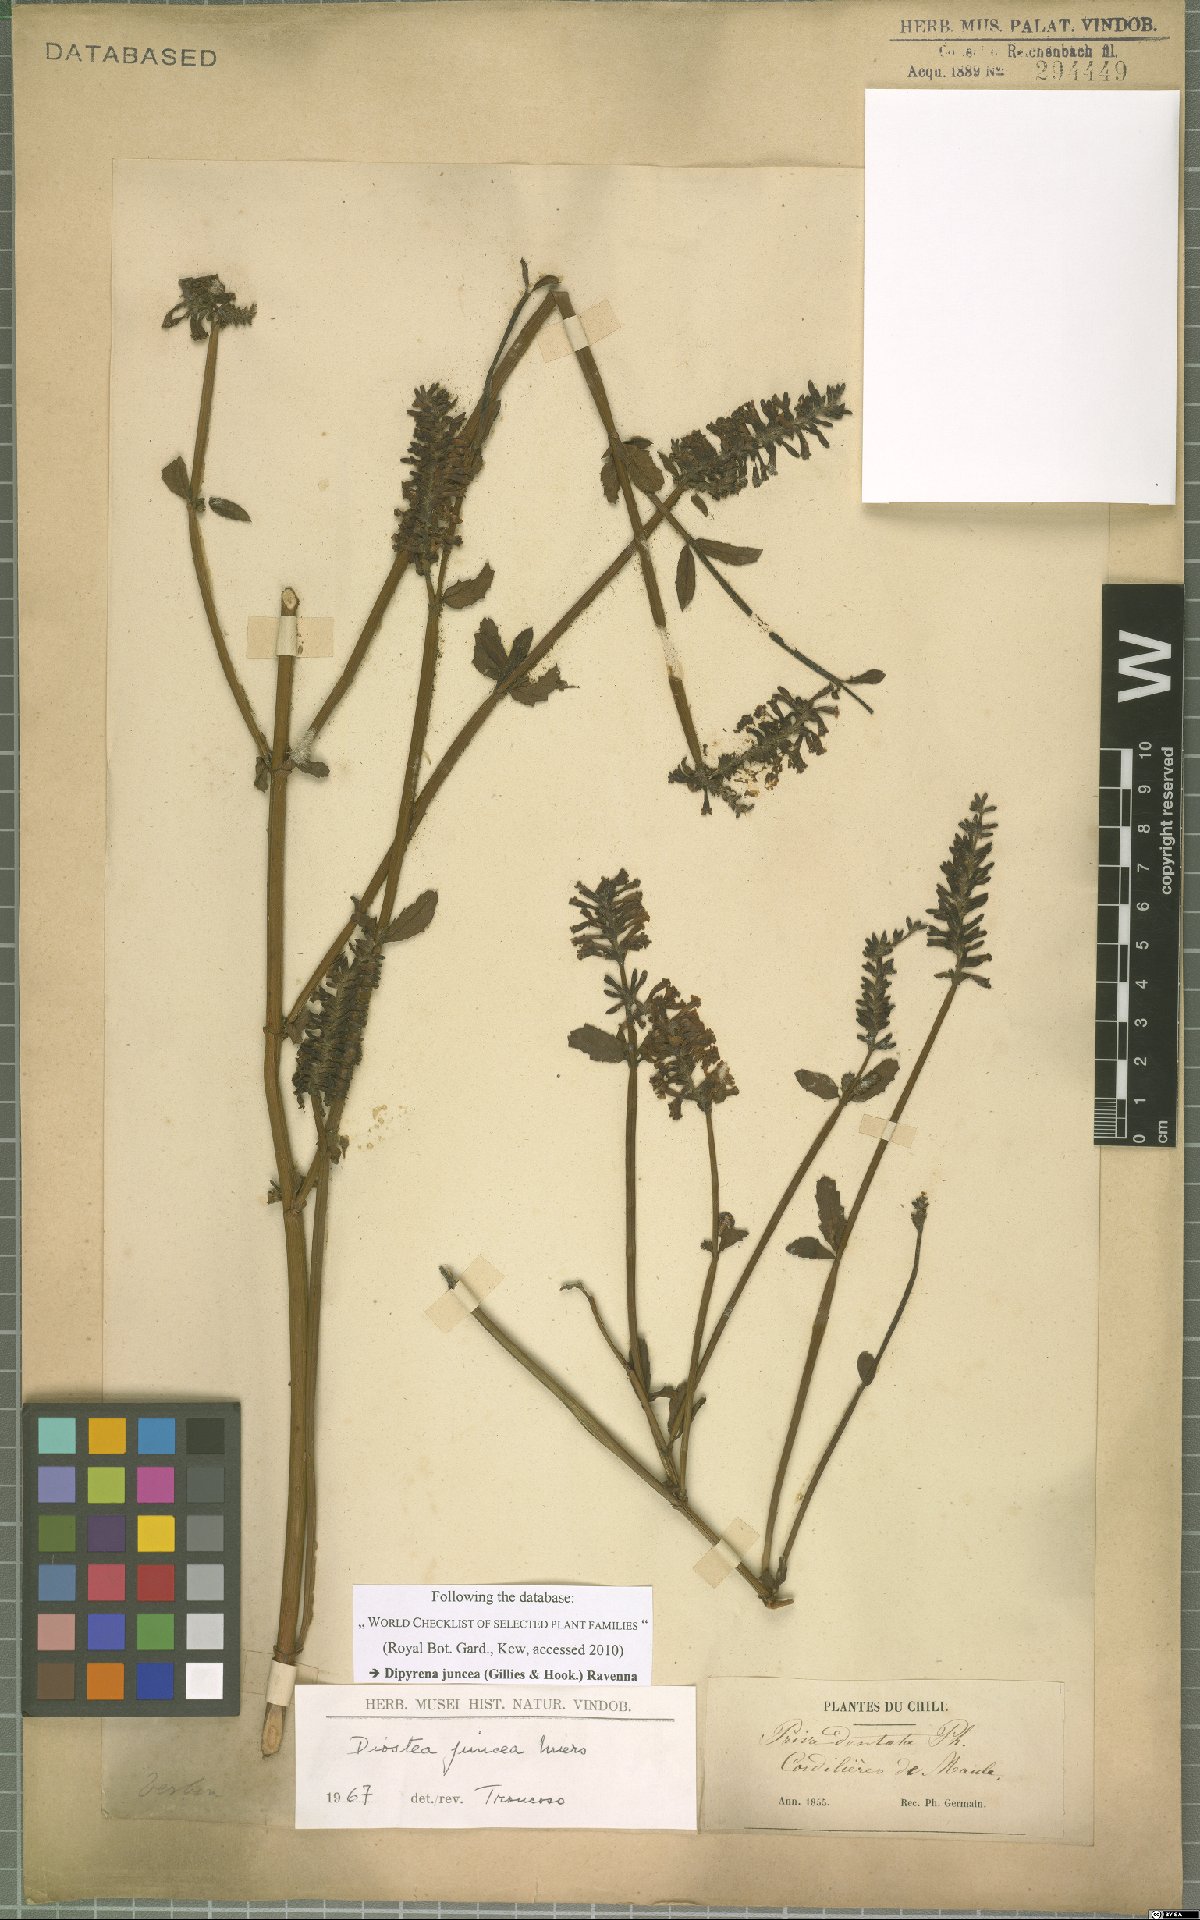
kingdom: Plantae
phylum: Tracheophyta
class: Magnoliopsida
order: Lamiales
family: Verbenaceae
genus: Diostea
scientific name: Diostea juncea
